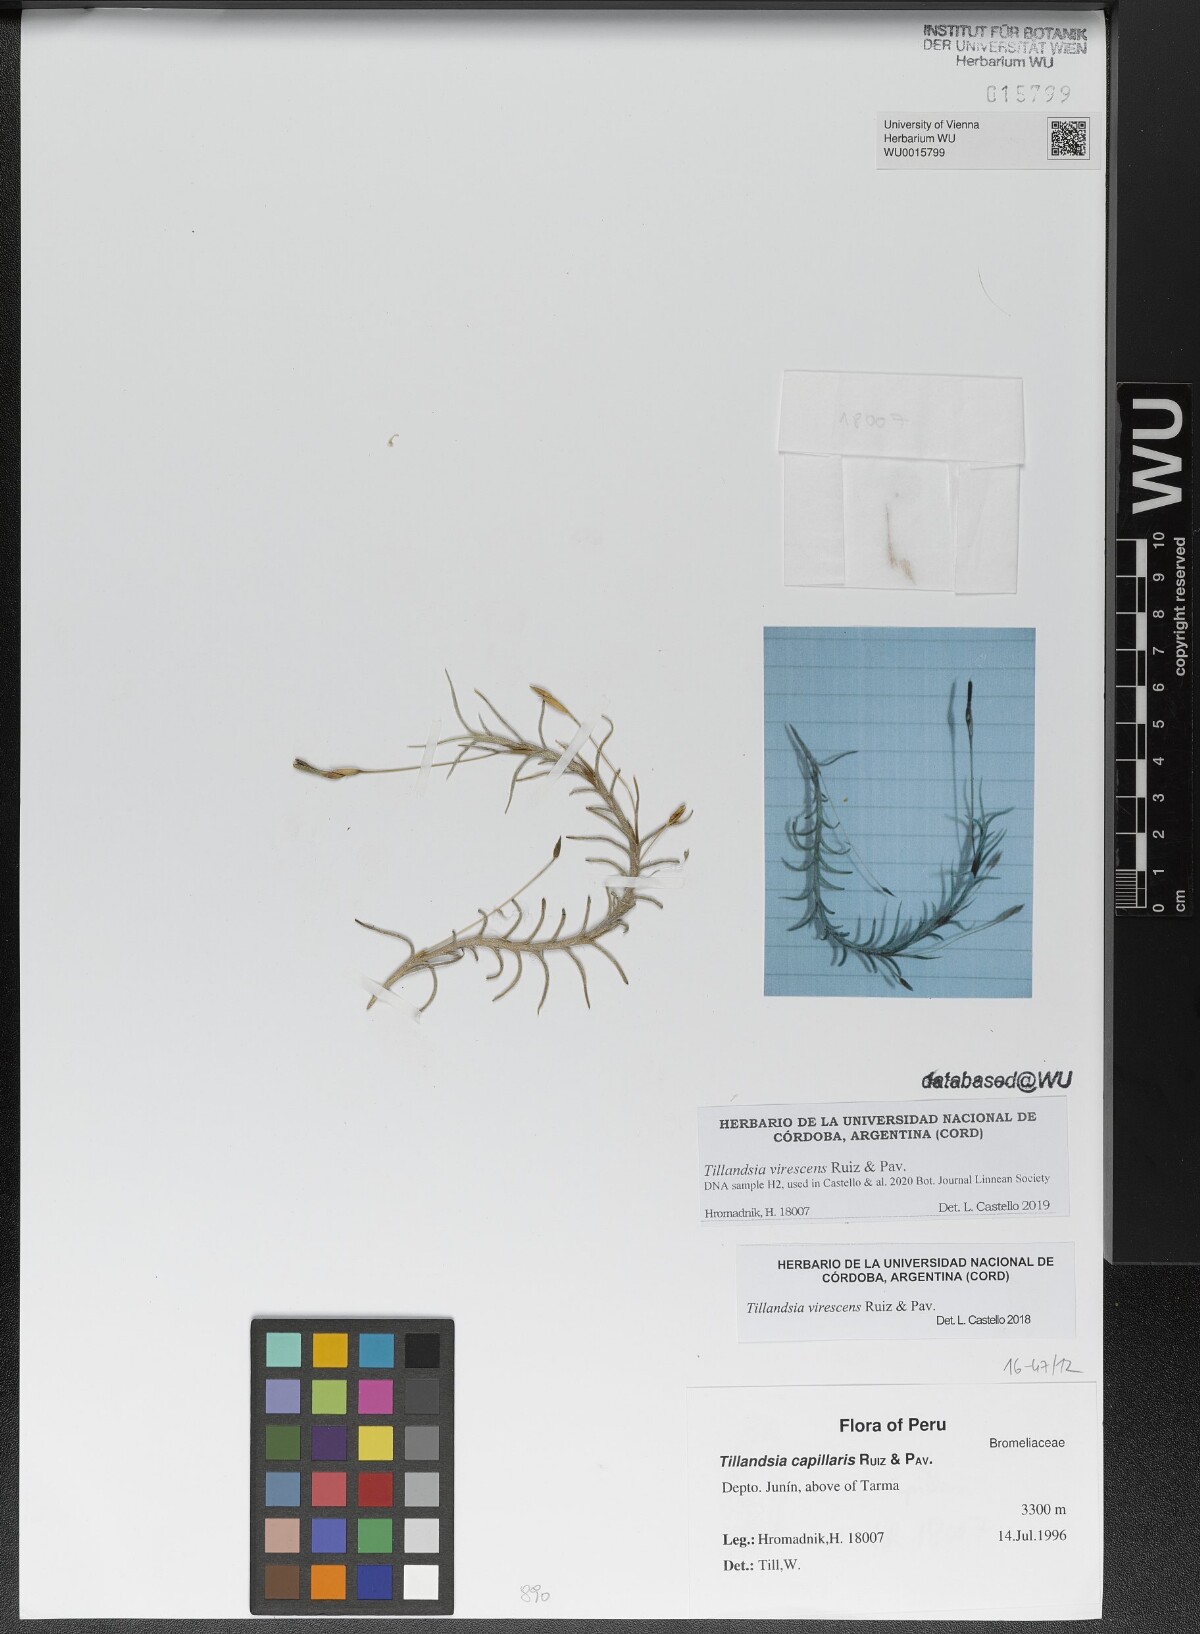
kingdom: Plantae
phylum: Tracheophyta
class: Liliopsida
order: Poales
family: Bromeliaceae
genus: Tillandsia
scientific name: Tillandsia virescens
